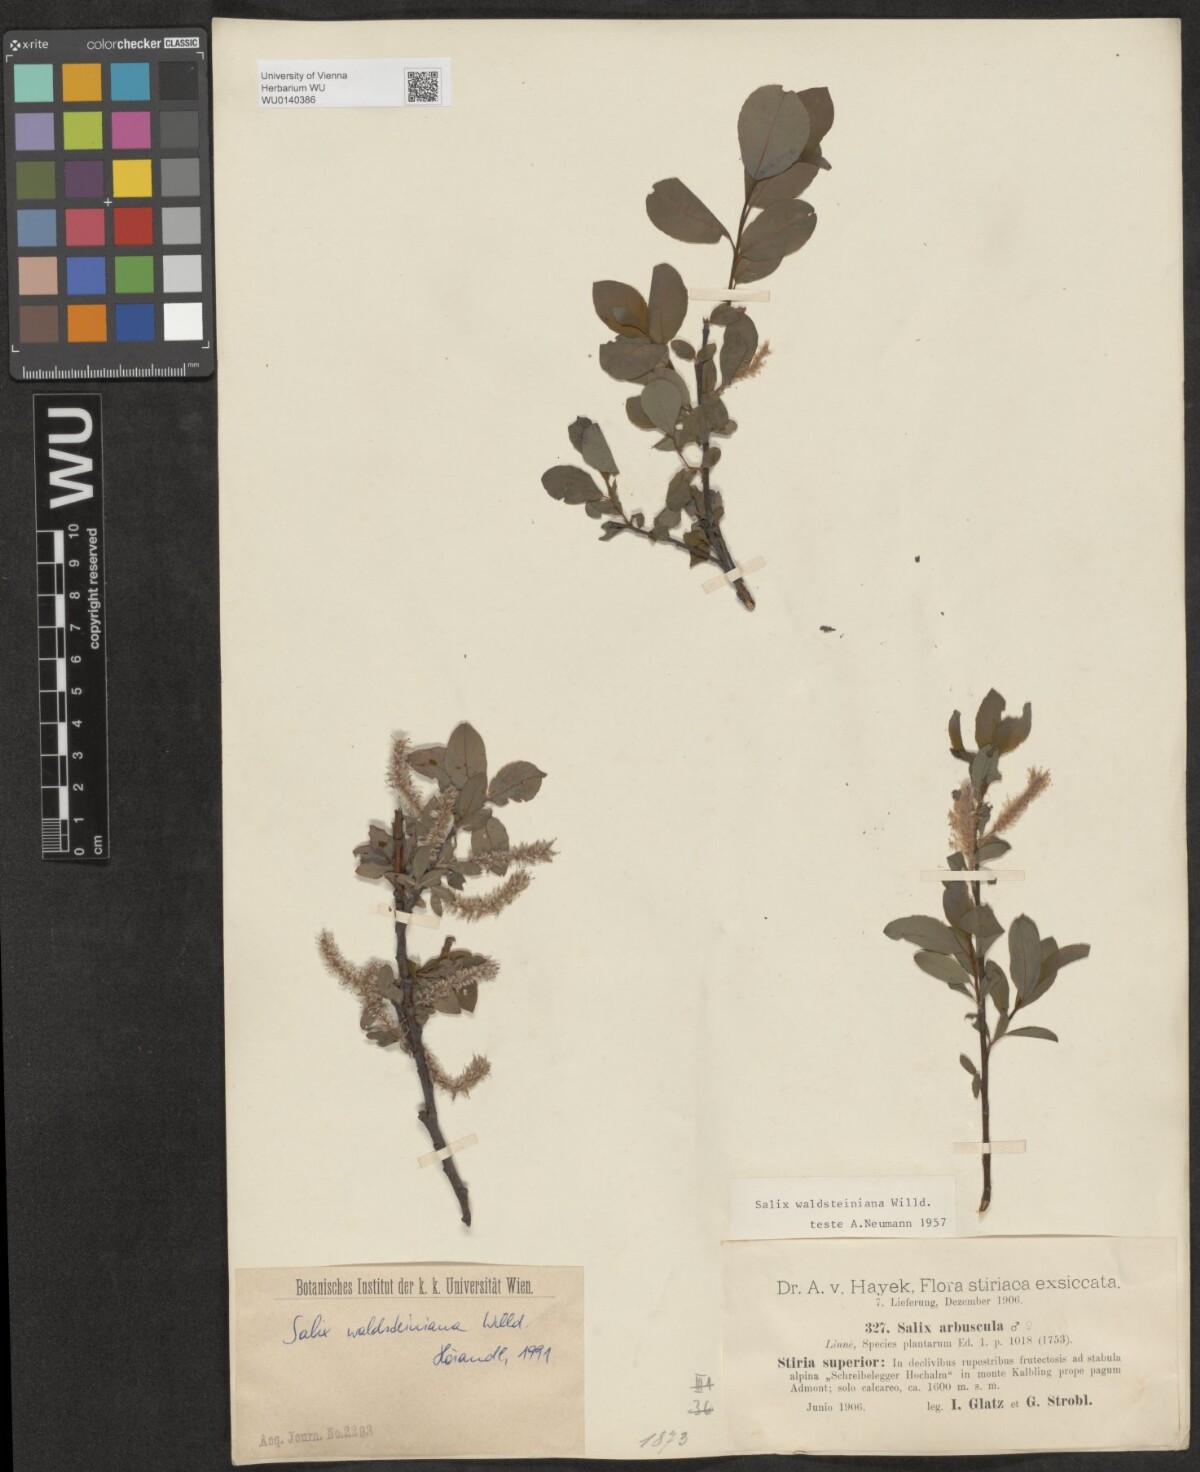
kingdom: Plantae
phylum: Tracheophyta
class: Magnoliopsida
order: Malpighiales
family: Salicaceae
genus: Salix
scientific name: Salix waldsteiniana
